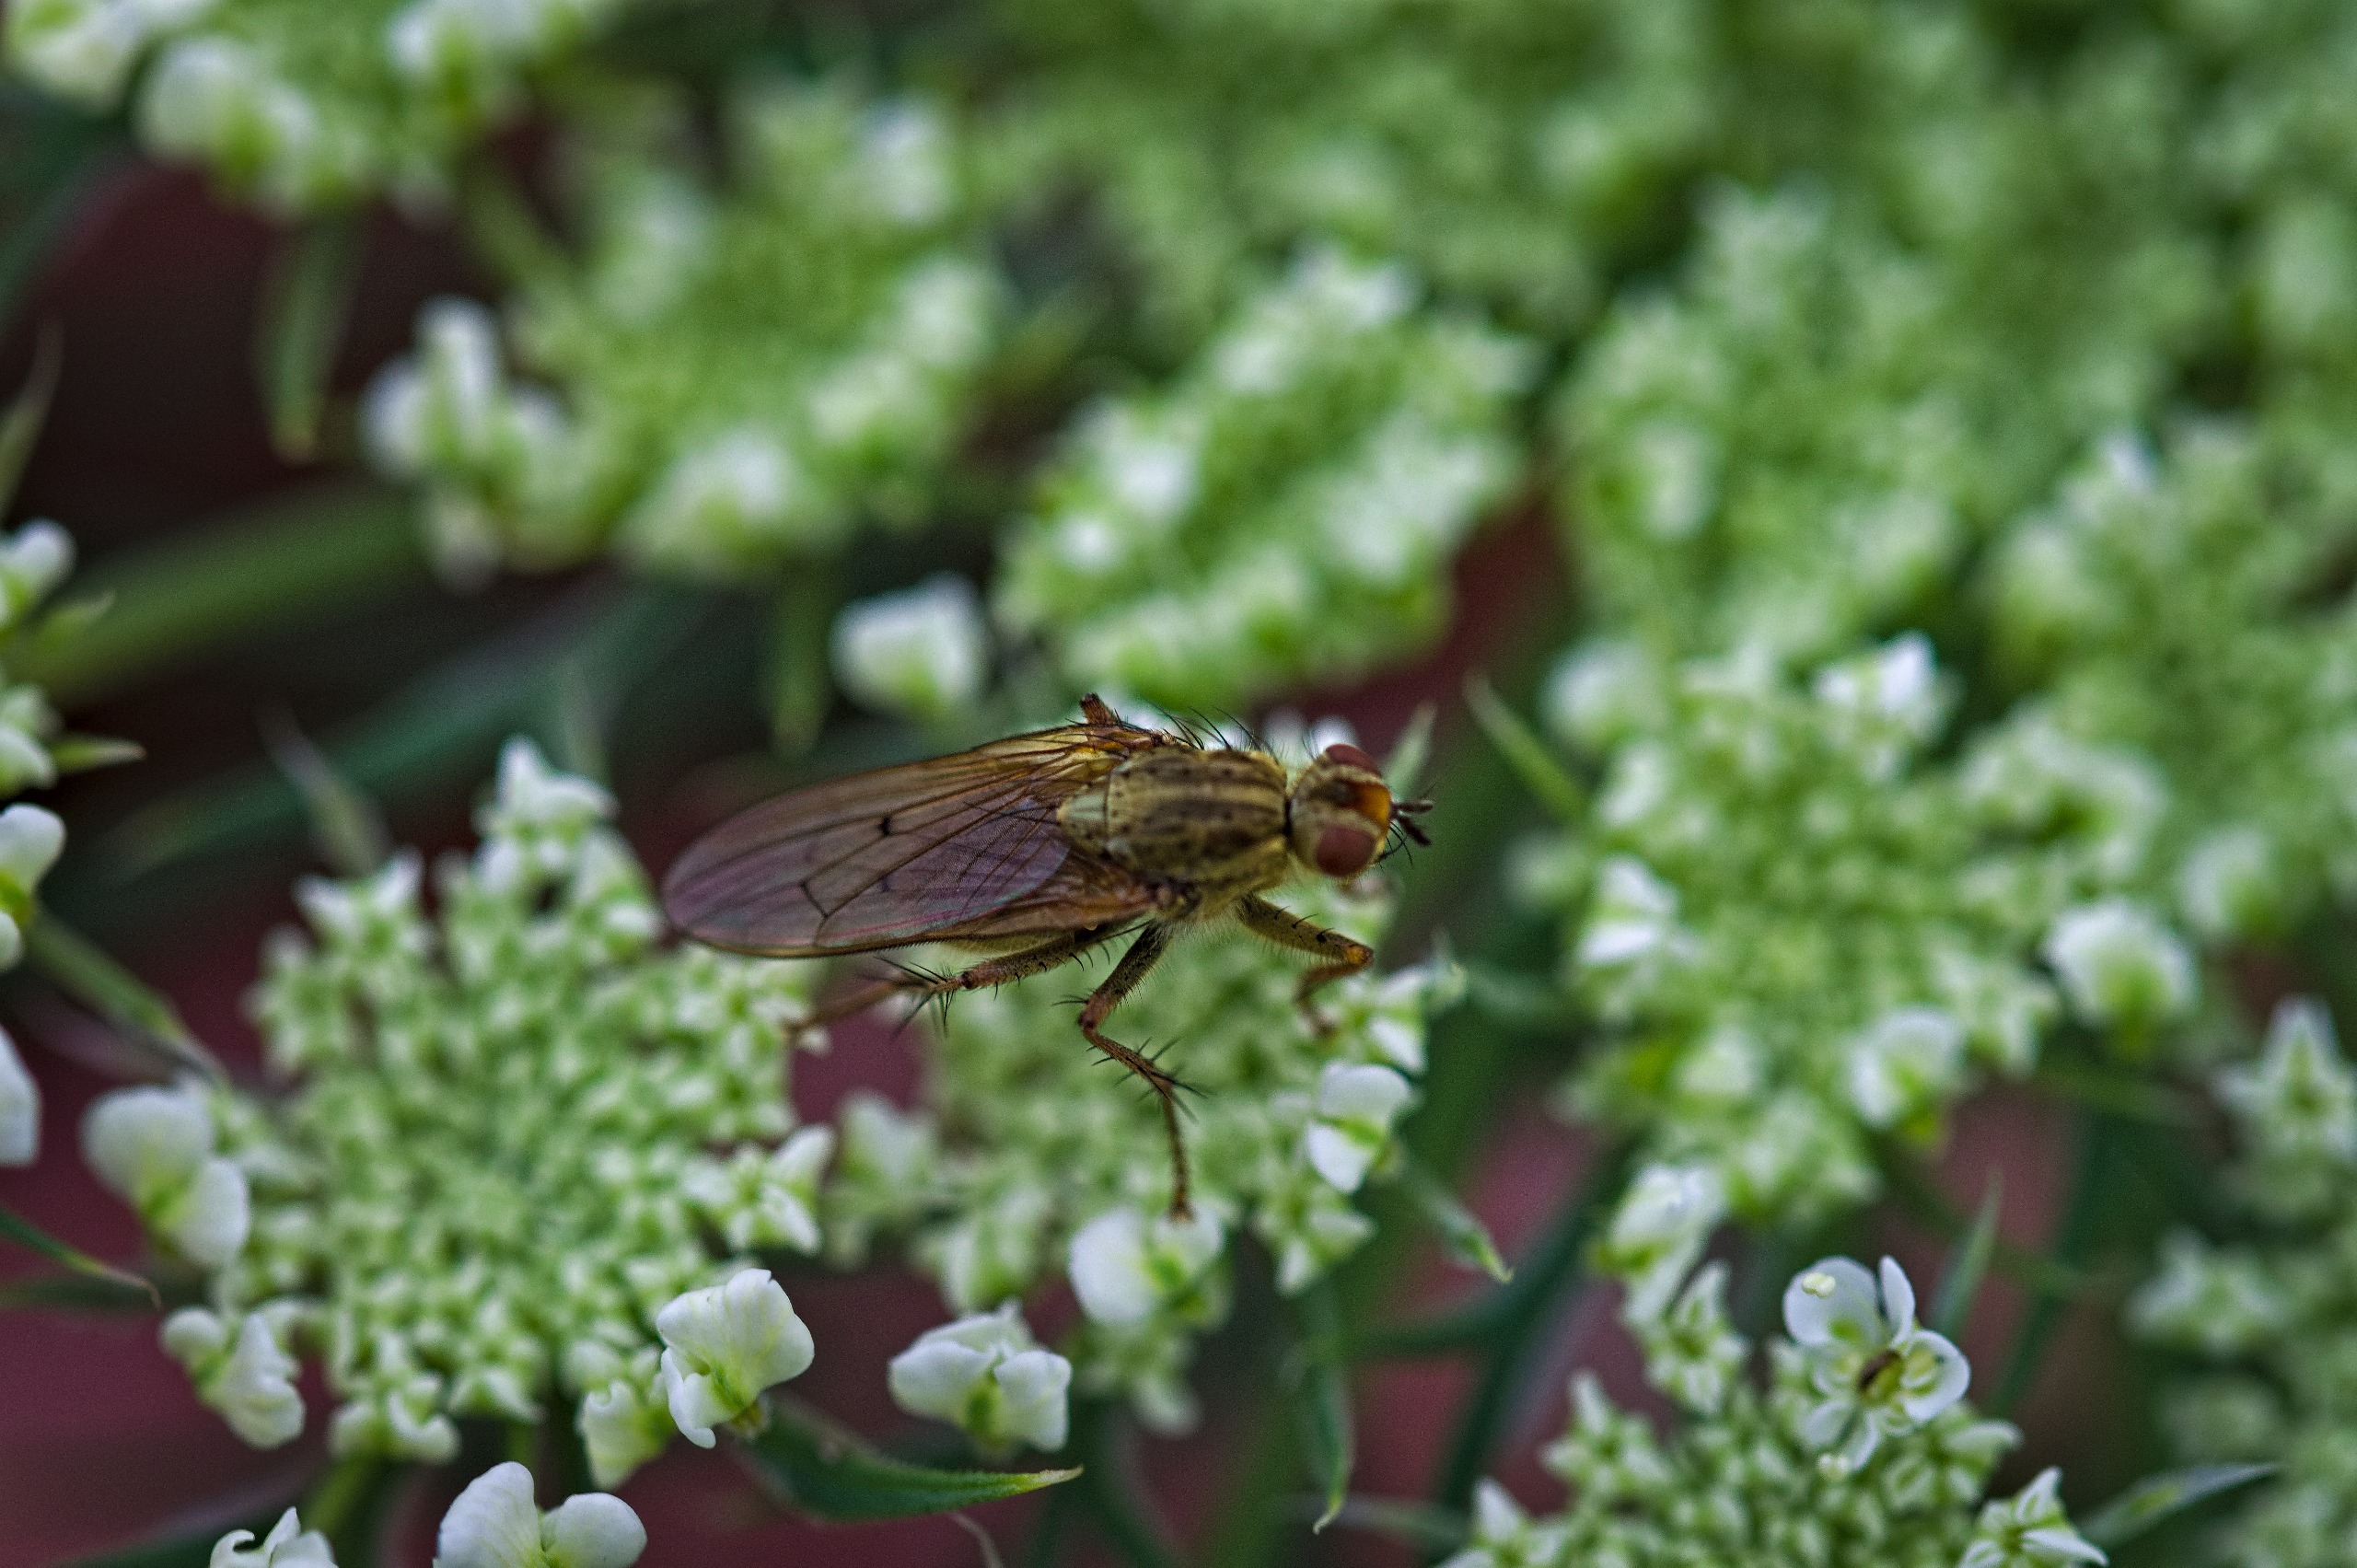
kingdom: Animalia
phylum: Arthropoda
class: Insecta
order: Diptera
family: Scathophagidae
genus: Scathophaga
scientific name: Scathophaga stercoraria
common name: Almindelig gødningsflue
